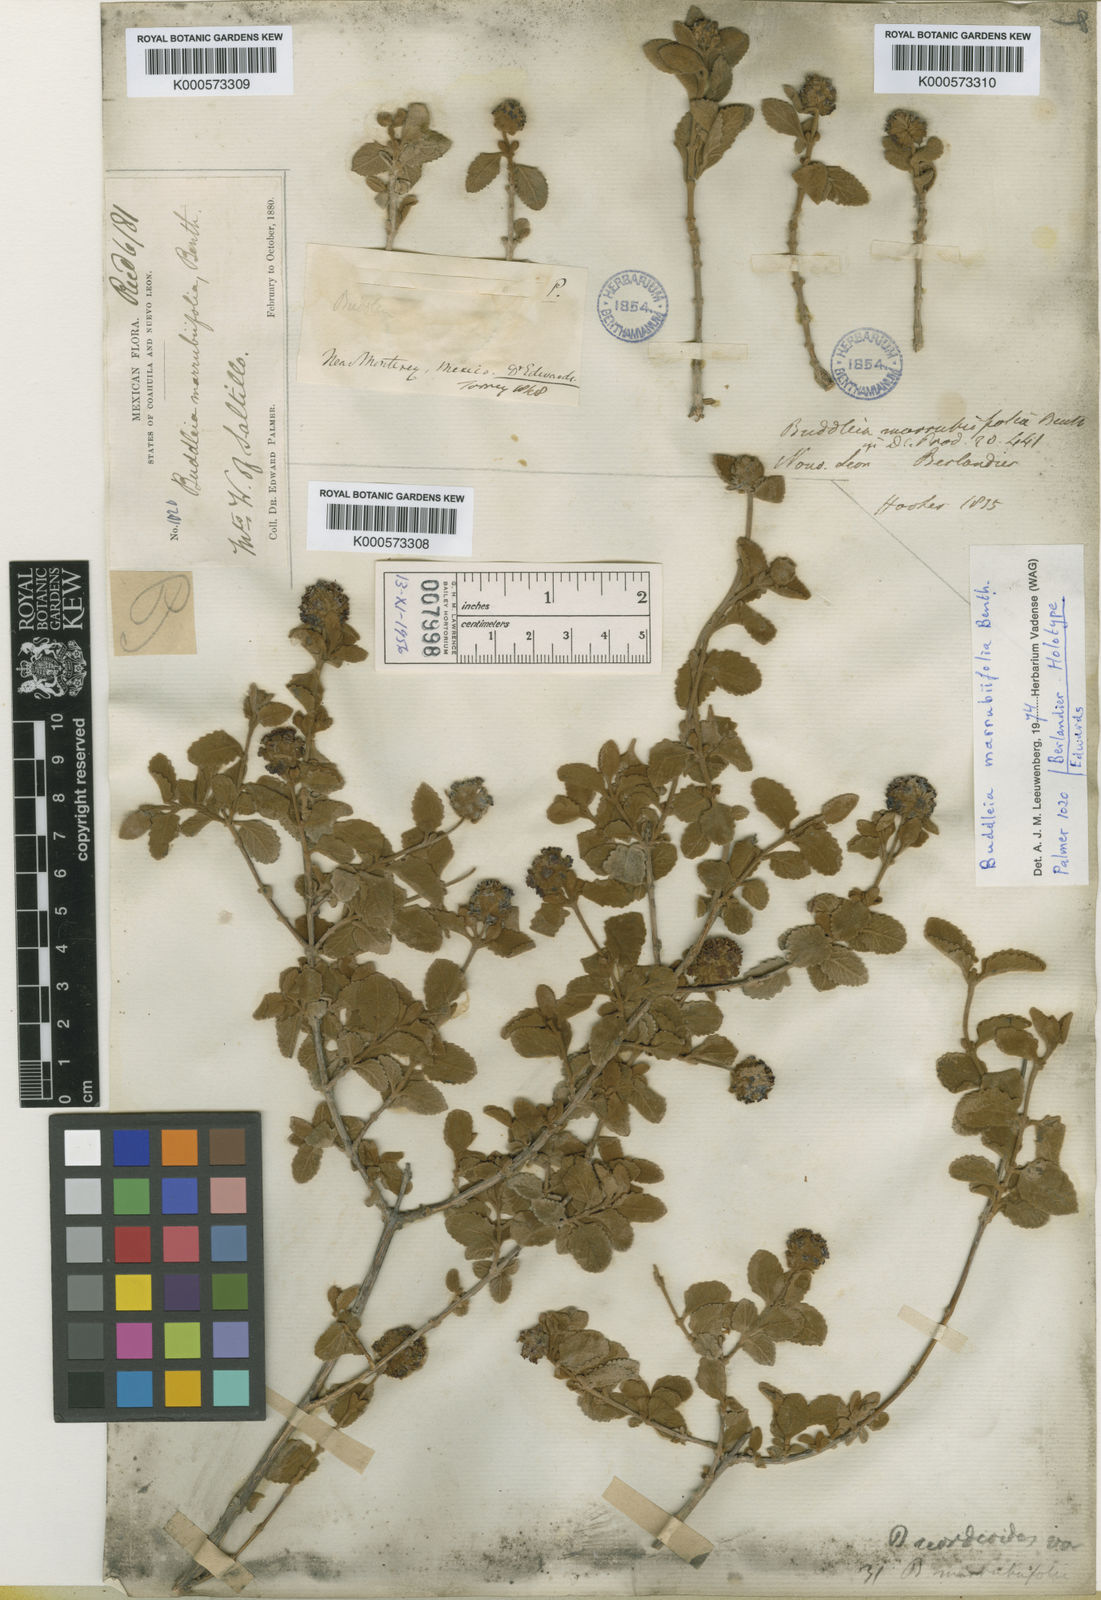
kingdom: Plantae
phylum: Tracheophyta
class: Magnoliopsida
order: Lamiales
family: Scrophulariaceae
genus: Buddleja
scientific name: Buddleja marrubiifolia
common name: Woolly butterfly-bush
